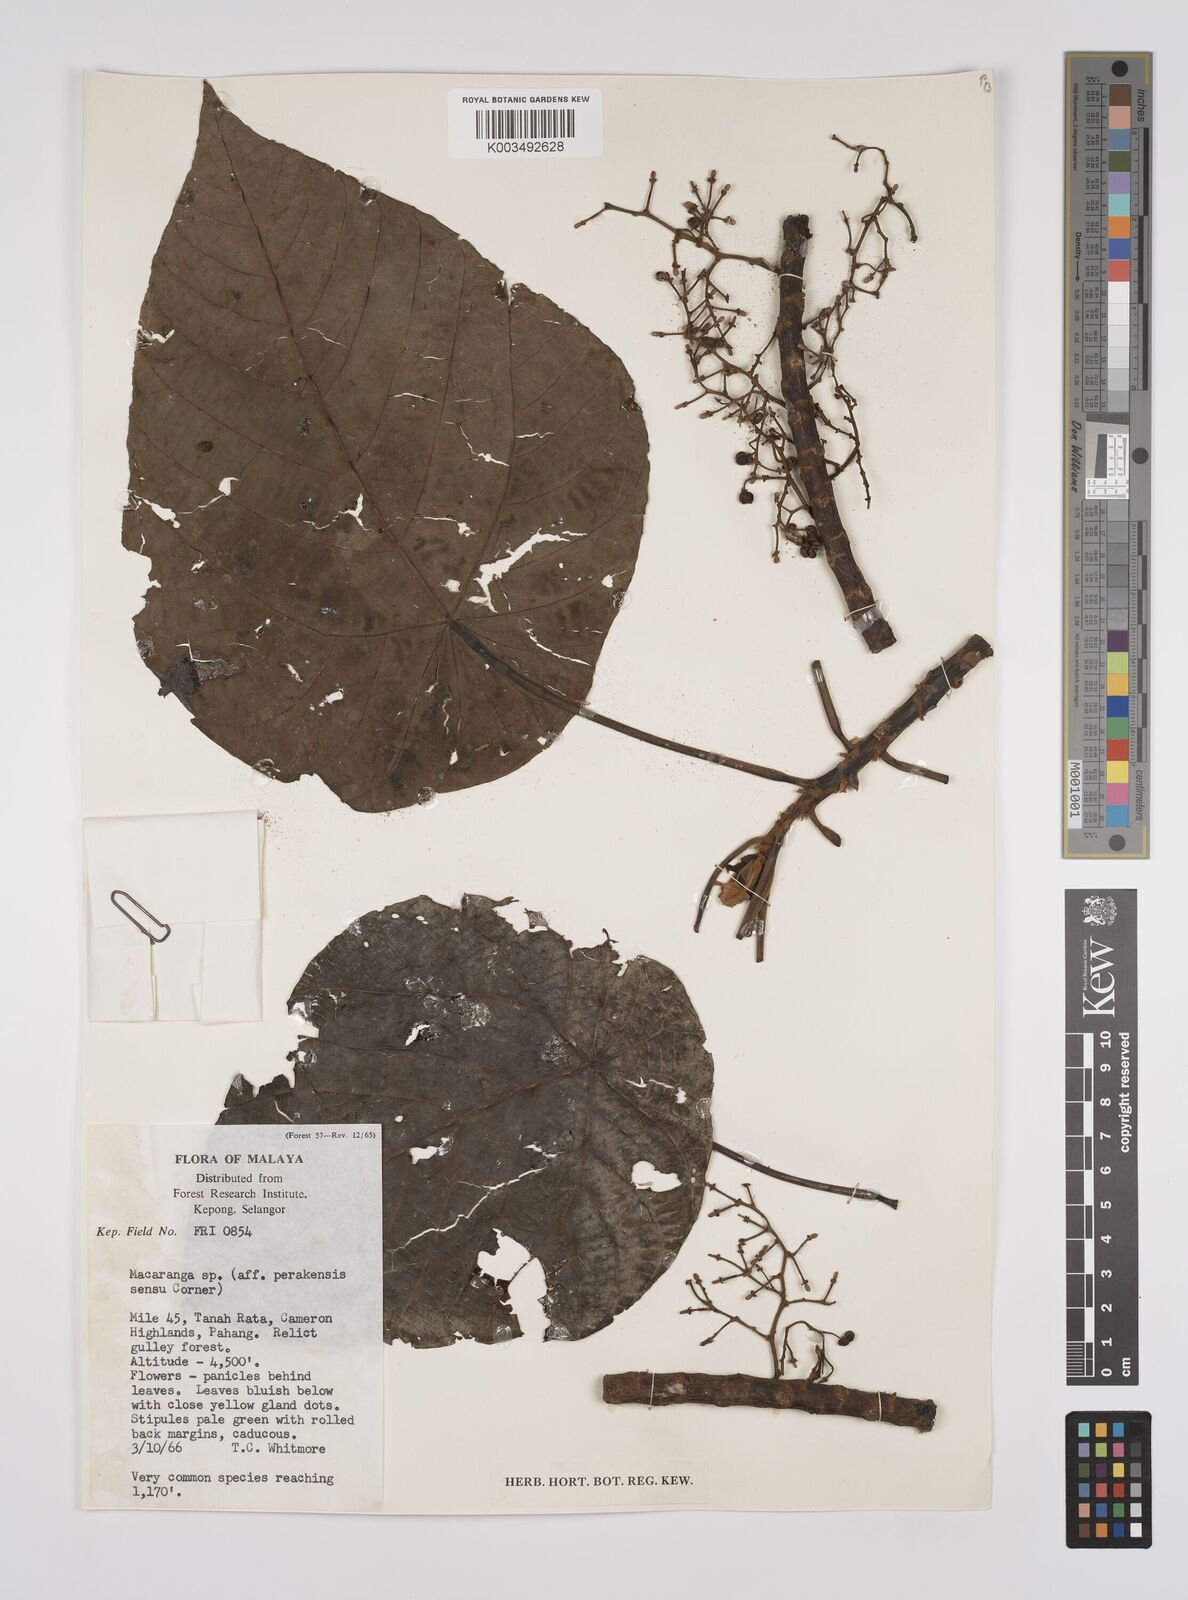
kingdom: Plantae
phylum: Tracheophyta
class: Magnoliopsida
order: Malpighiales
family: Euphorbiaceae
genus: Macaranga
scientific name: Macaranga indica
